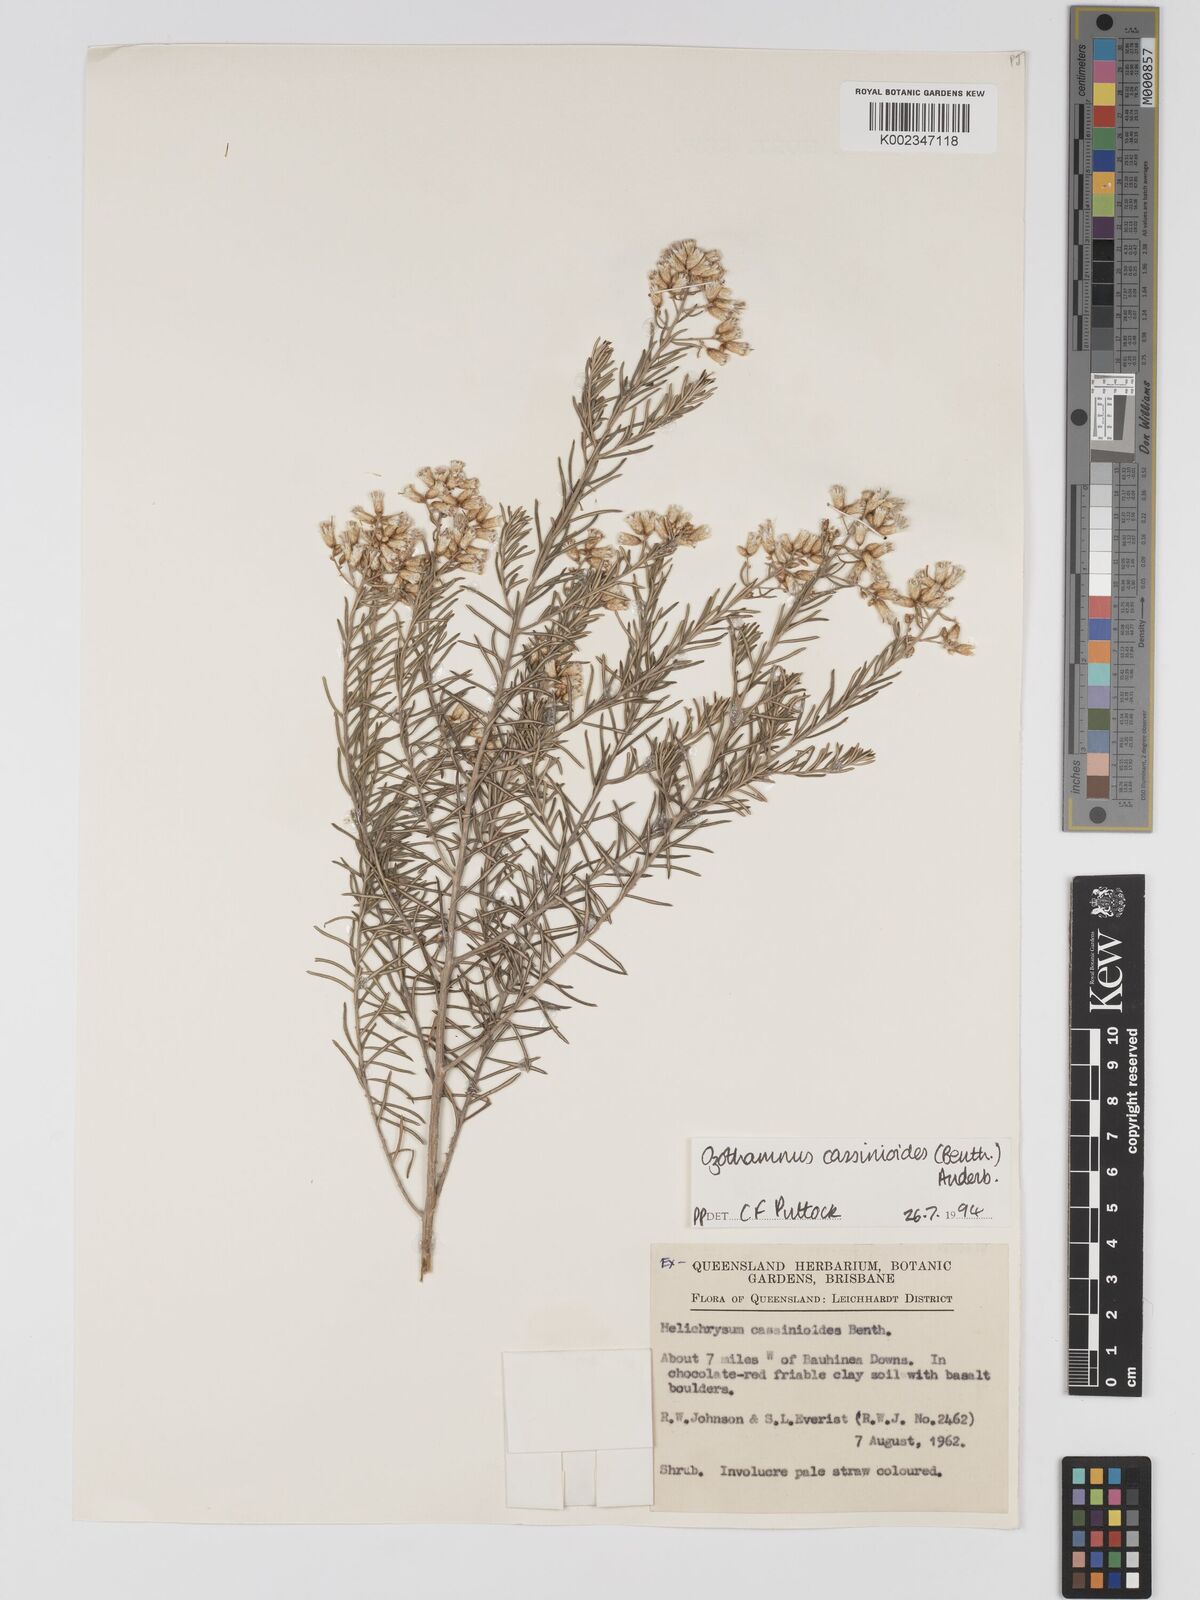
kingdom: Plantae
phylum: Tracheophyta
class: Magnoliopsida
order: Asterales
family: Asteraceae
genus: Ozothamnus
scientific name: Ozothamnus cassinioides
